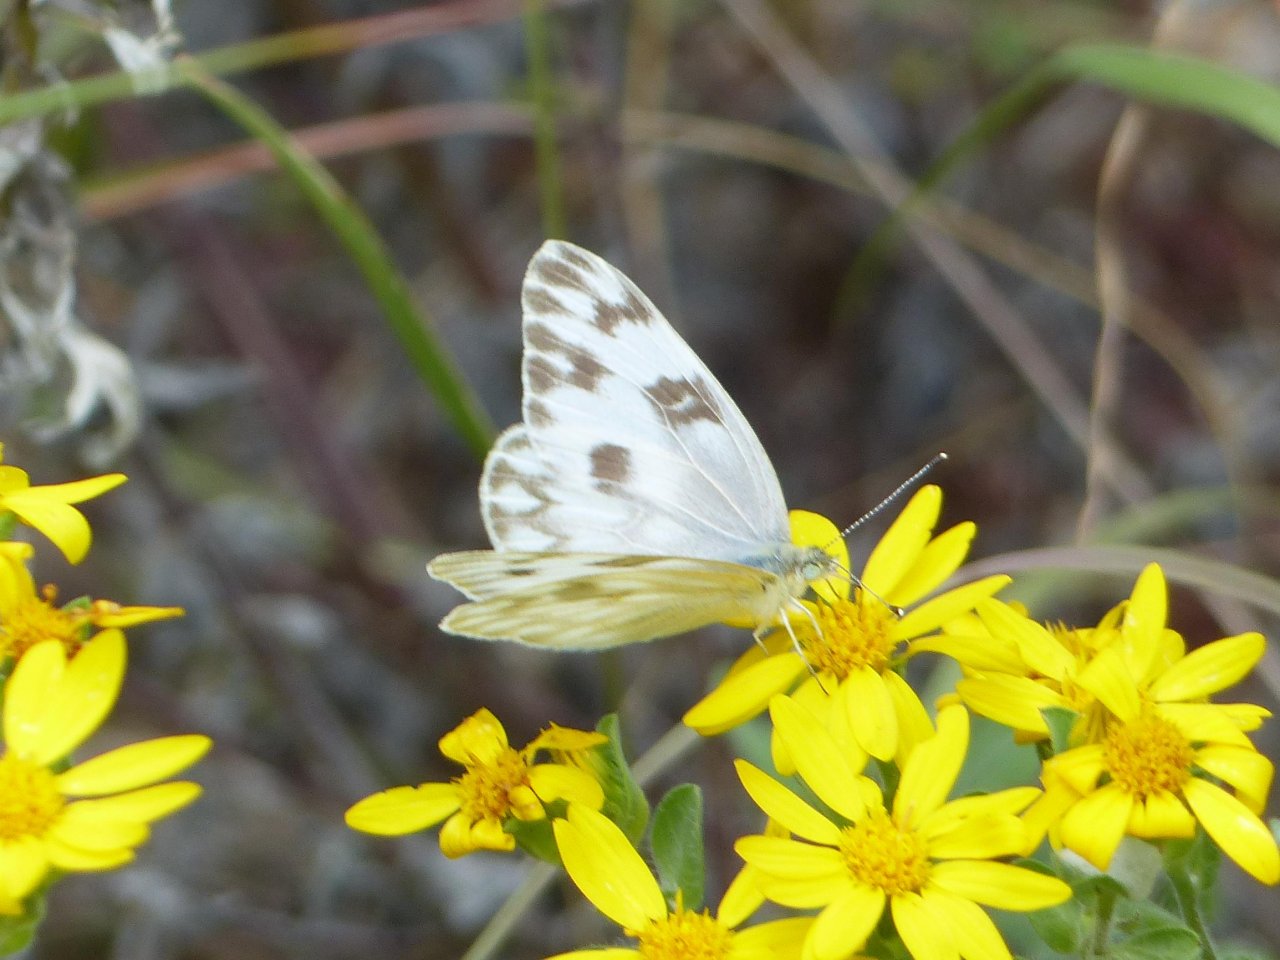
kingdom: Animalia
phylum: Arthropoda
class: Insecta
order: Lepidoptera
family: Pieridae
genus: Pontia
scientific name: Pontia protodice
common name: Checkered White
